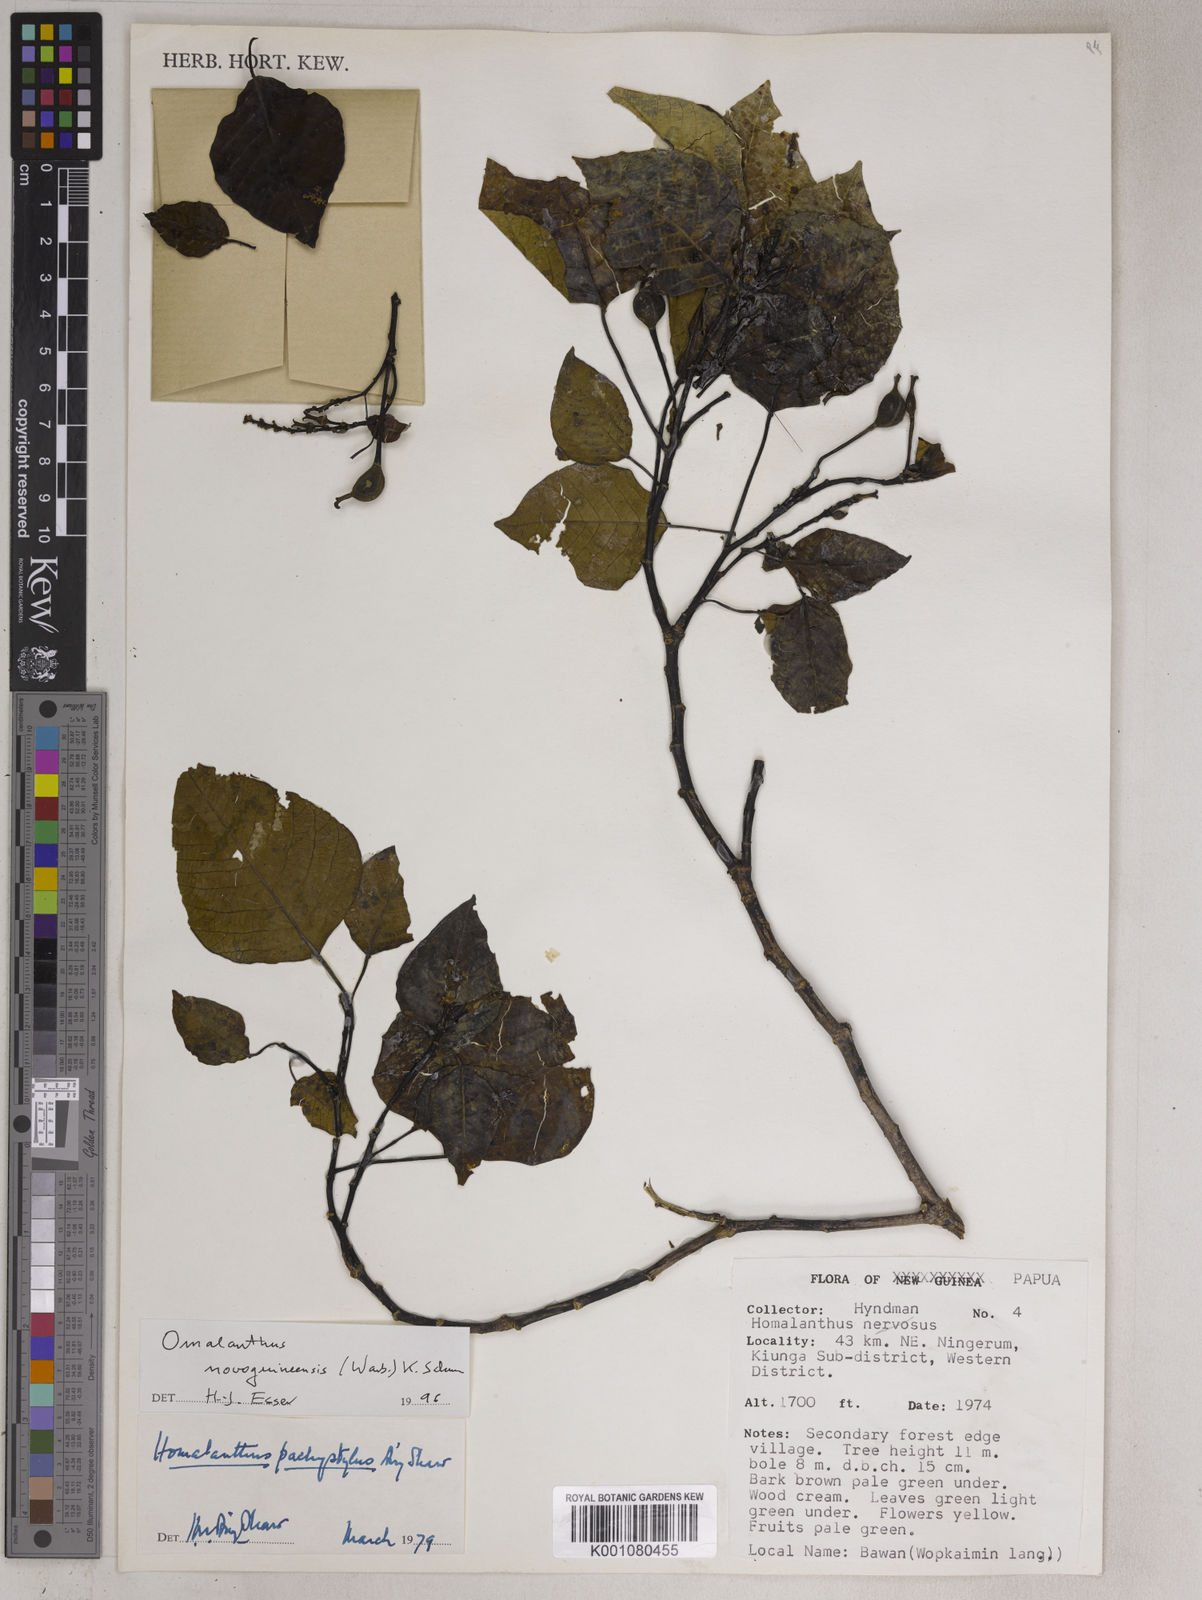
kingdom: Plantae
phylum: Tracheophyta
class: Magnoliopsida
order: Malpighiales
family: Euphorbiaceae
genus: Homalanthus
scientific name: Homalanthus novoguineensis
